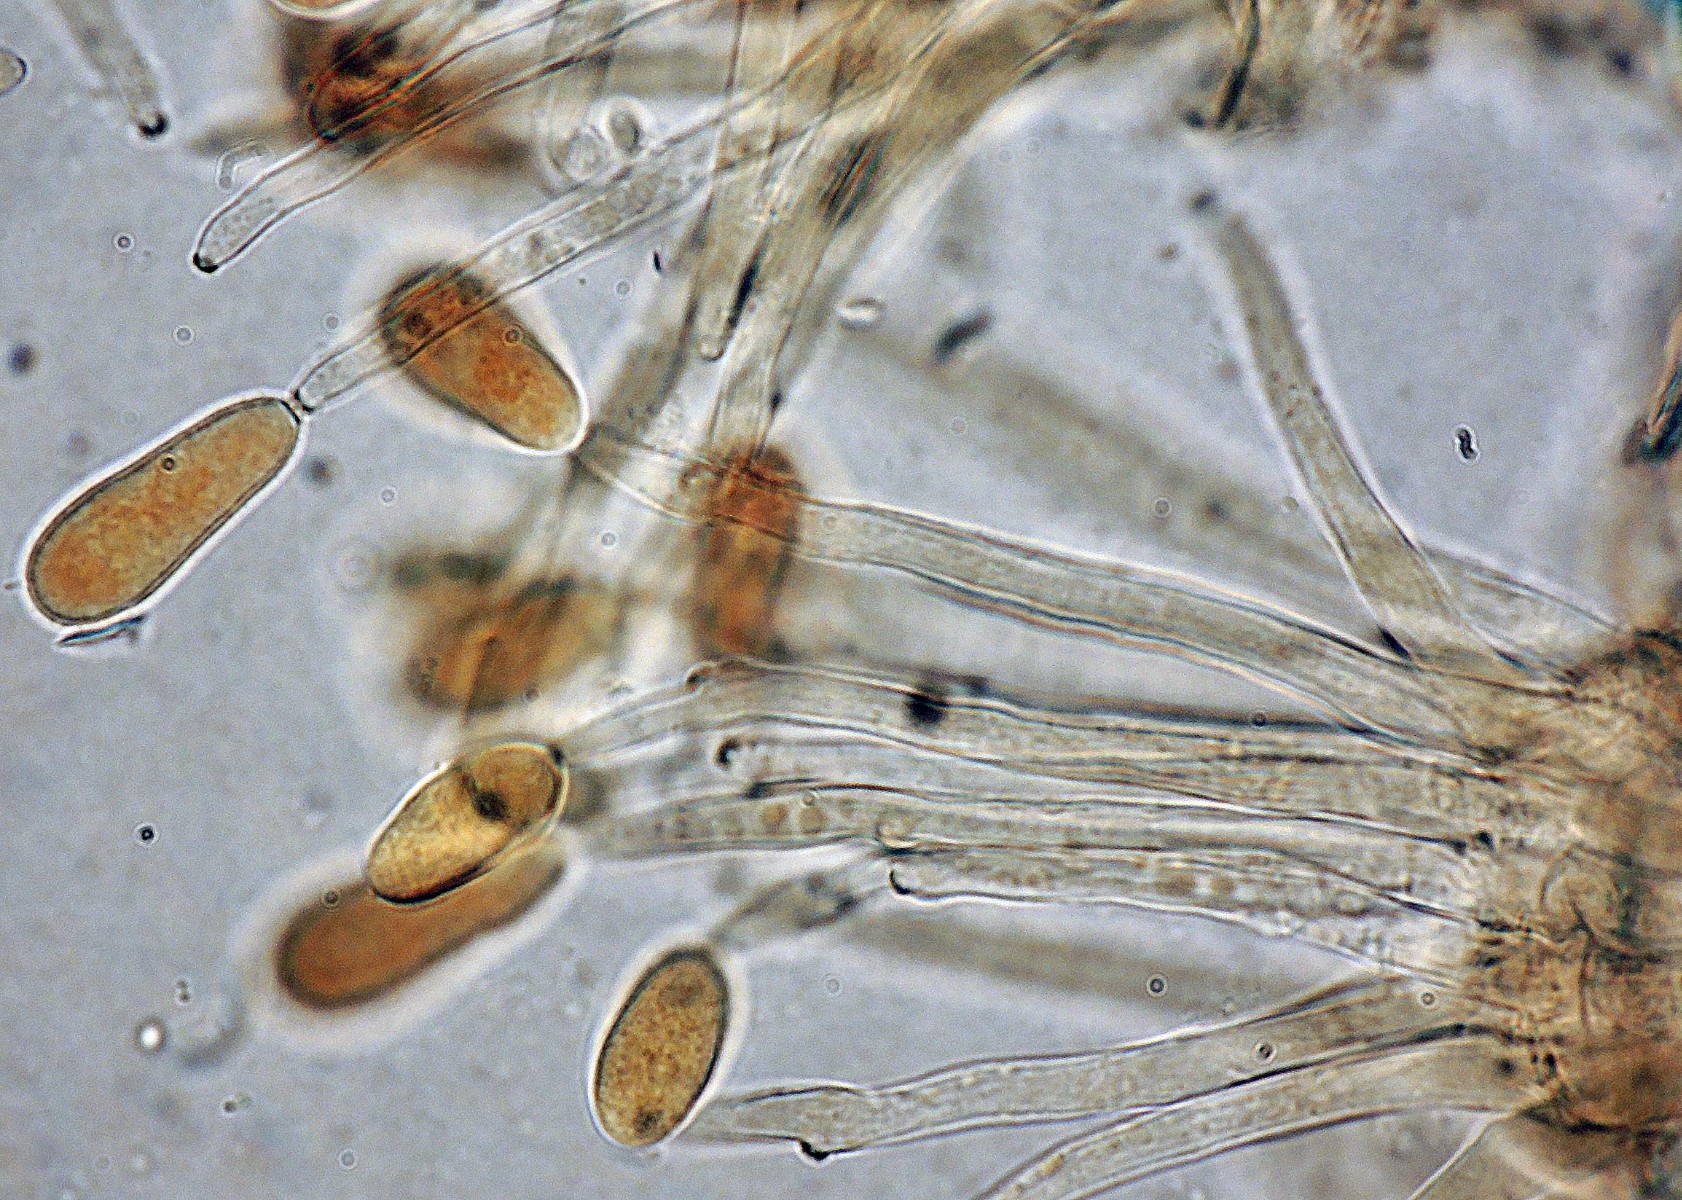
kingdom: Fungi
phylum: Ascomycota
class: Dothideomycetes
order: Mycosphaerellales
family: Mycosphaerellaceae
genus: Ramularia
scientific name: Ramularia rubella
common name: Red dock spot
